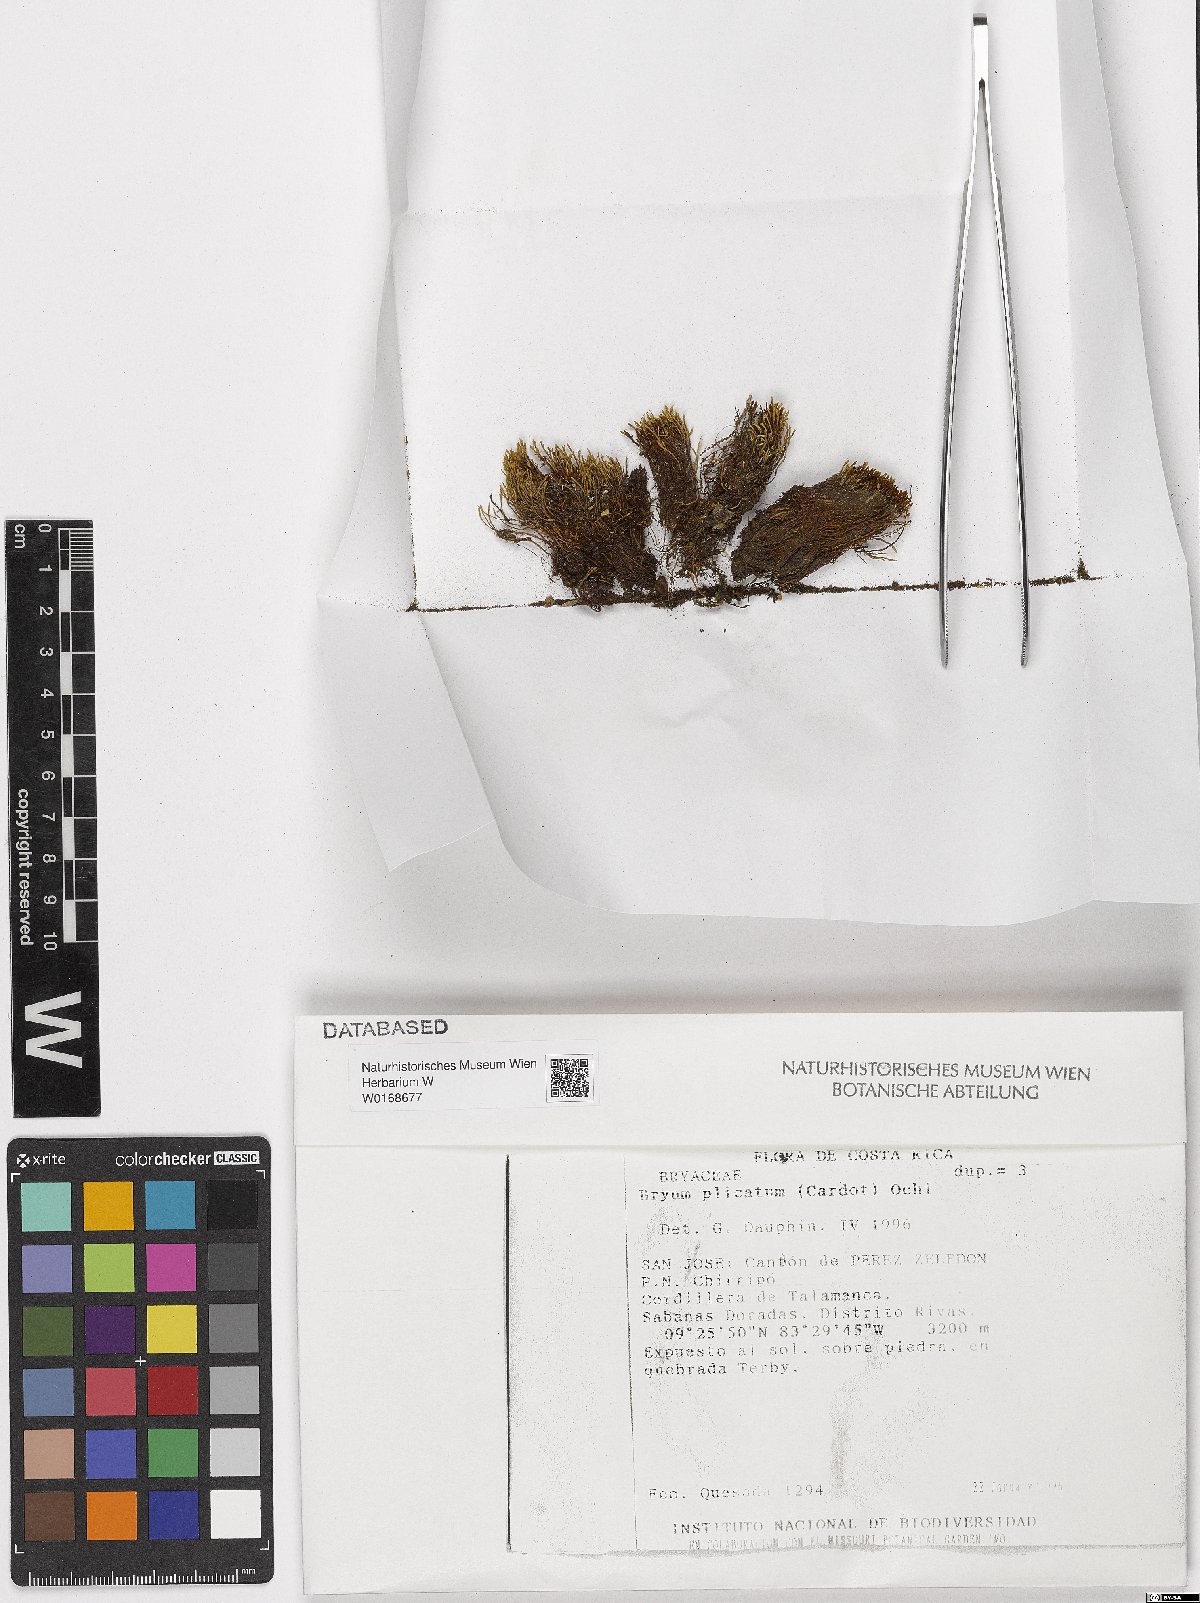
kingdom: Plantae
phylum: Bryophyta
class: Bryopsida
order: Bryales
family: Bryaceae
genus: Anomobryum
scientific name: Anomobryum prostratum
